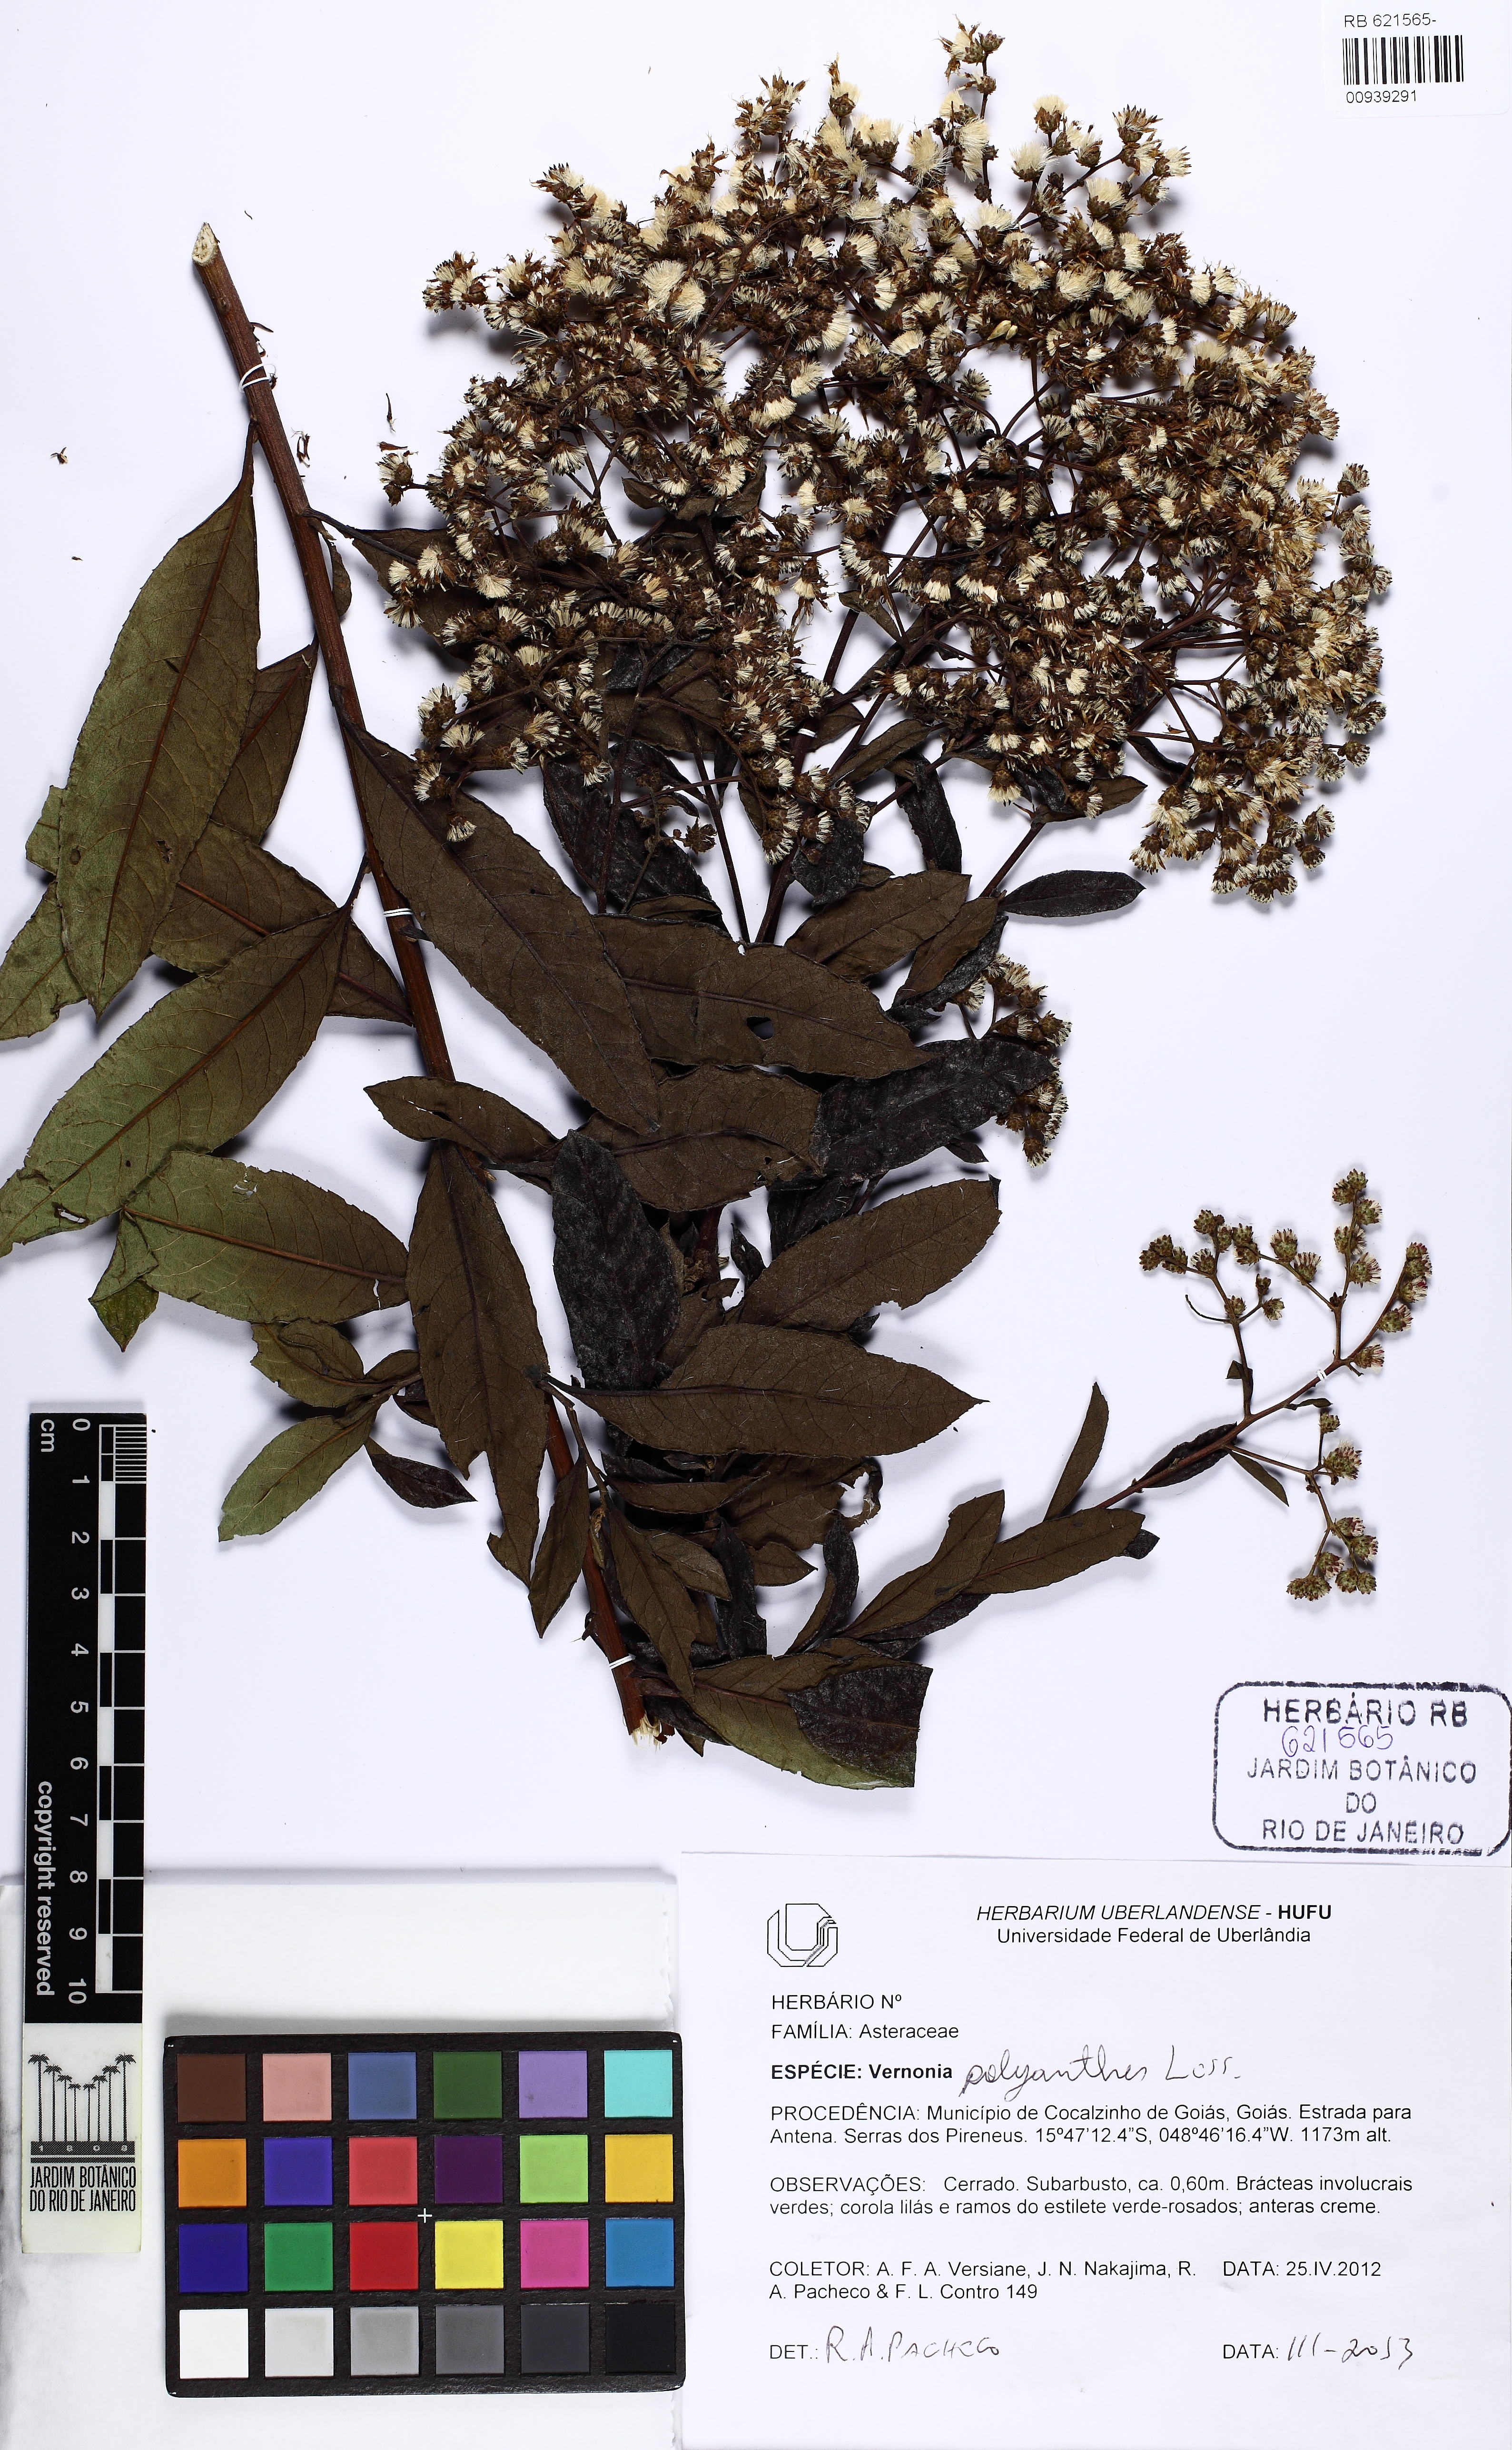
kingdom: Plantae
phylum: Tracheophyta
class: Magnoliopsida
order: Asterales
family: Asteraceae
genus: Vernonanthura
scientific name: Vernonanthura polyanthes
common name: Tree aster
